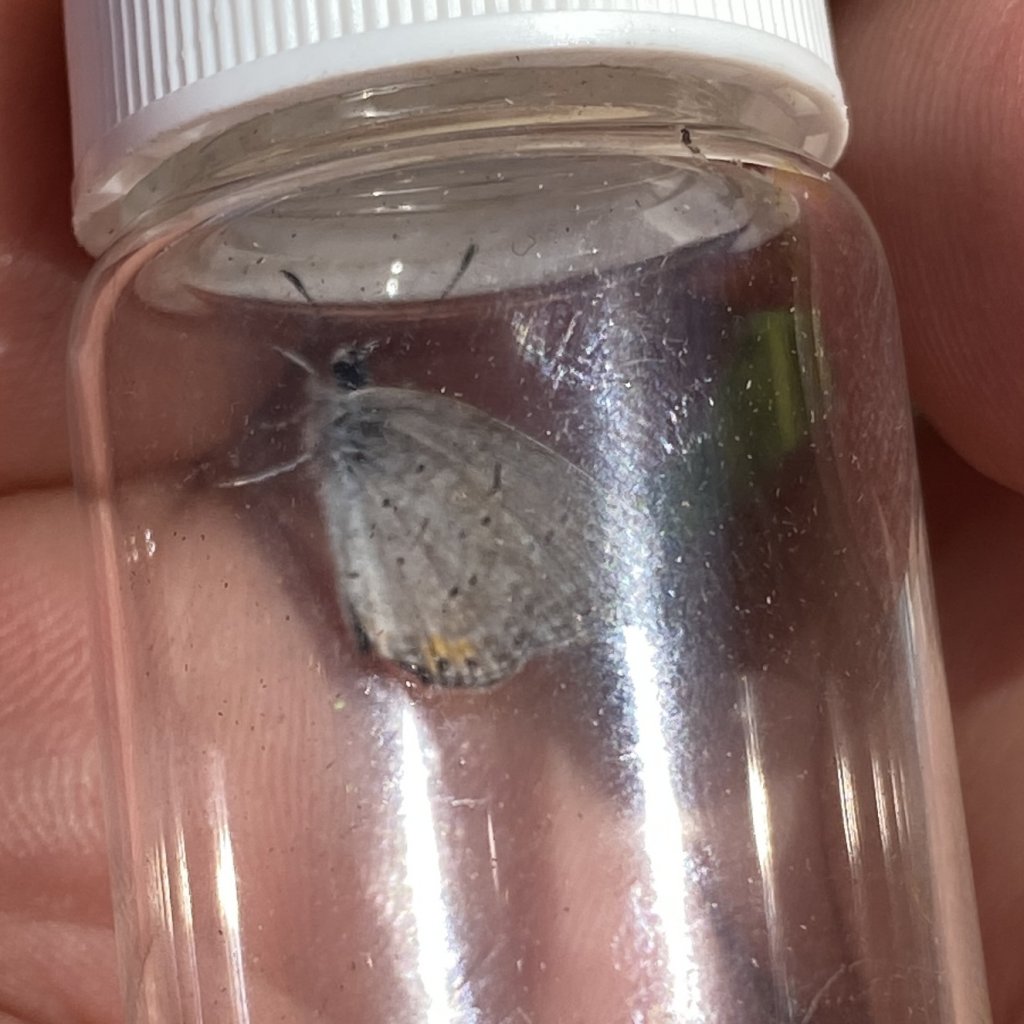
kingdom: Animalia
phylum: Arthropoda
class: Insecta
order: Lepidoptera
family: Lycaenidae
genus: Elkalyce
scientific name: Elkalyce comyntas
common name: Eastern Tailed-Blue
